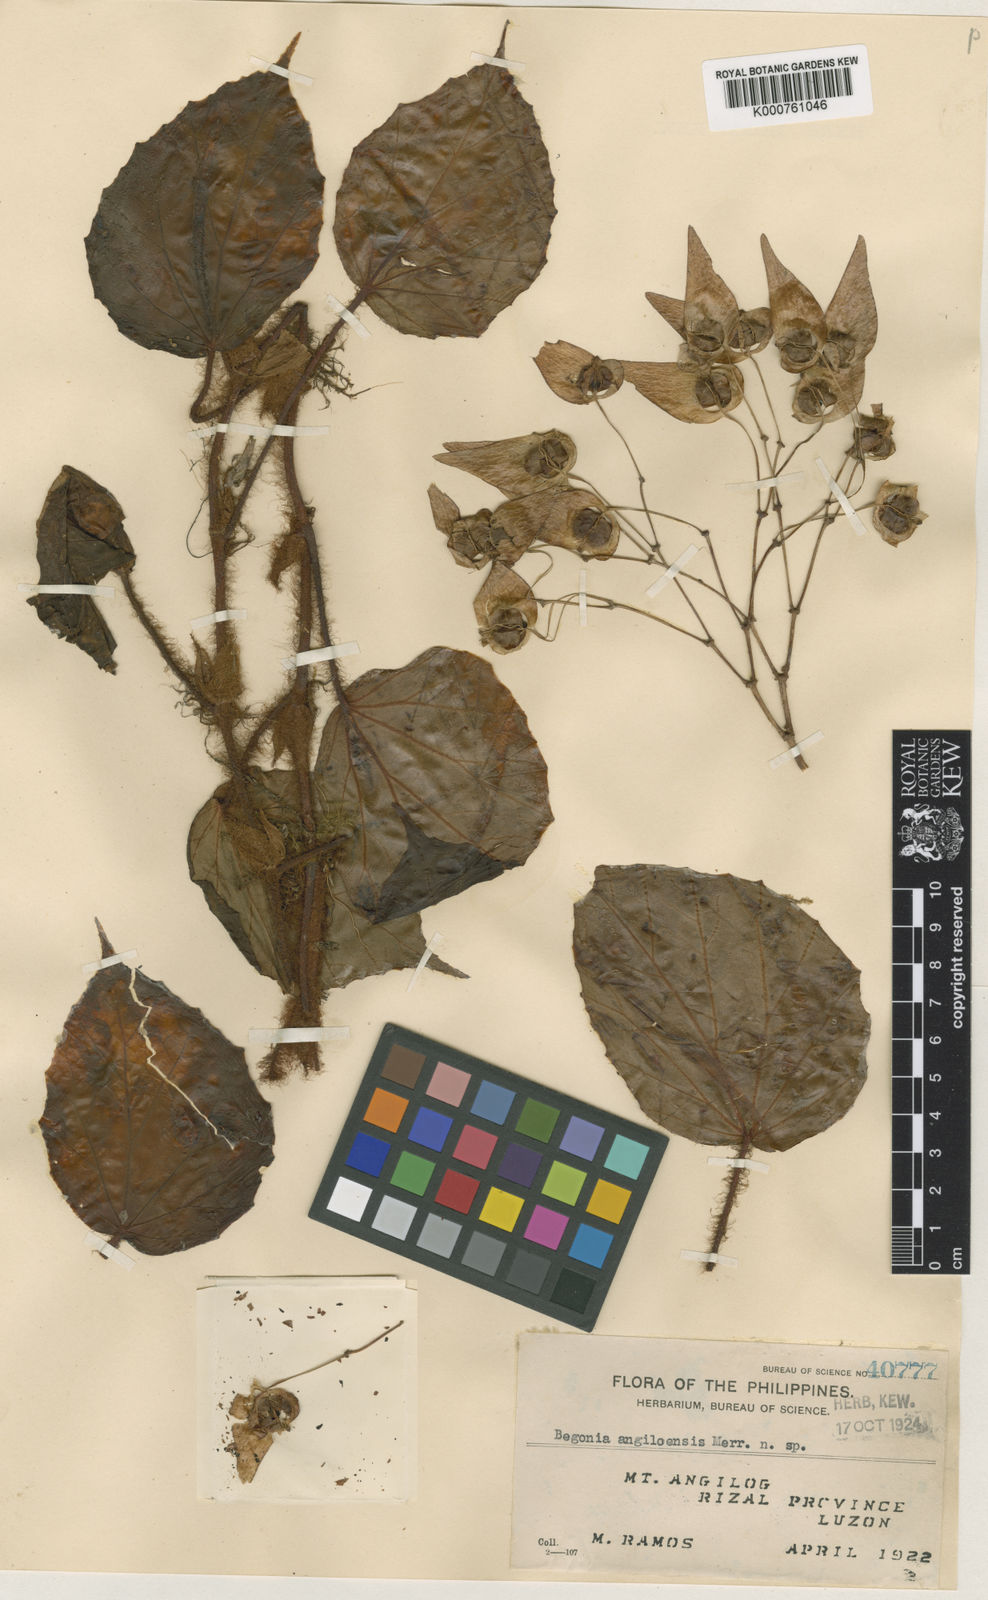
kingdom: Plantae
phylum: Tracheophyta
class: Magnoliopsida
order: Cucurbitales
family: Begoniaceae
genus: Begonia
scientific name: Begonia angilogensis
